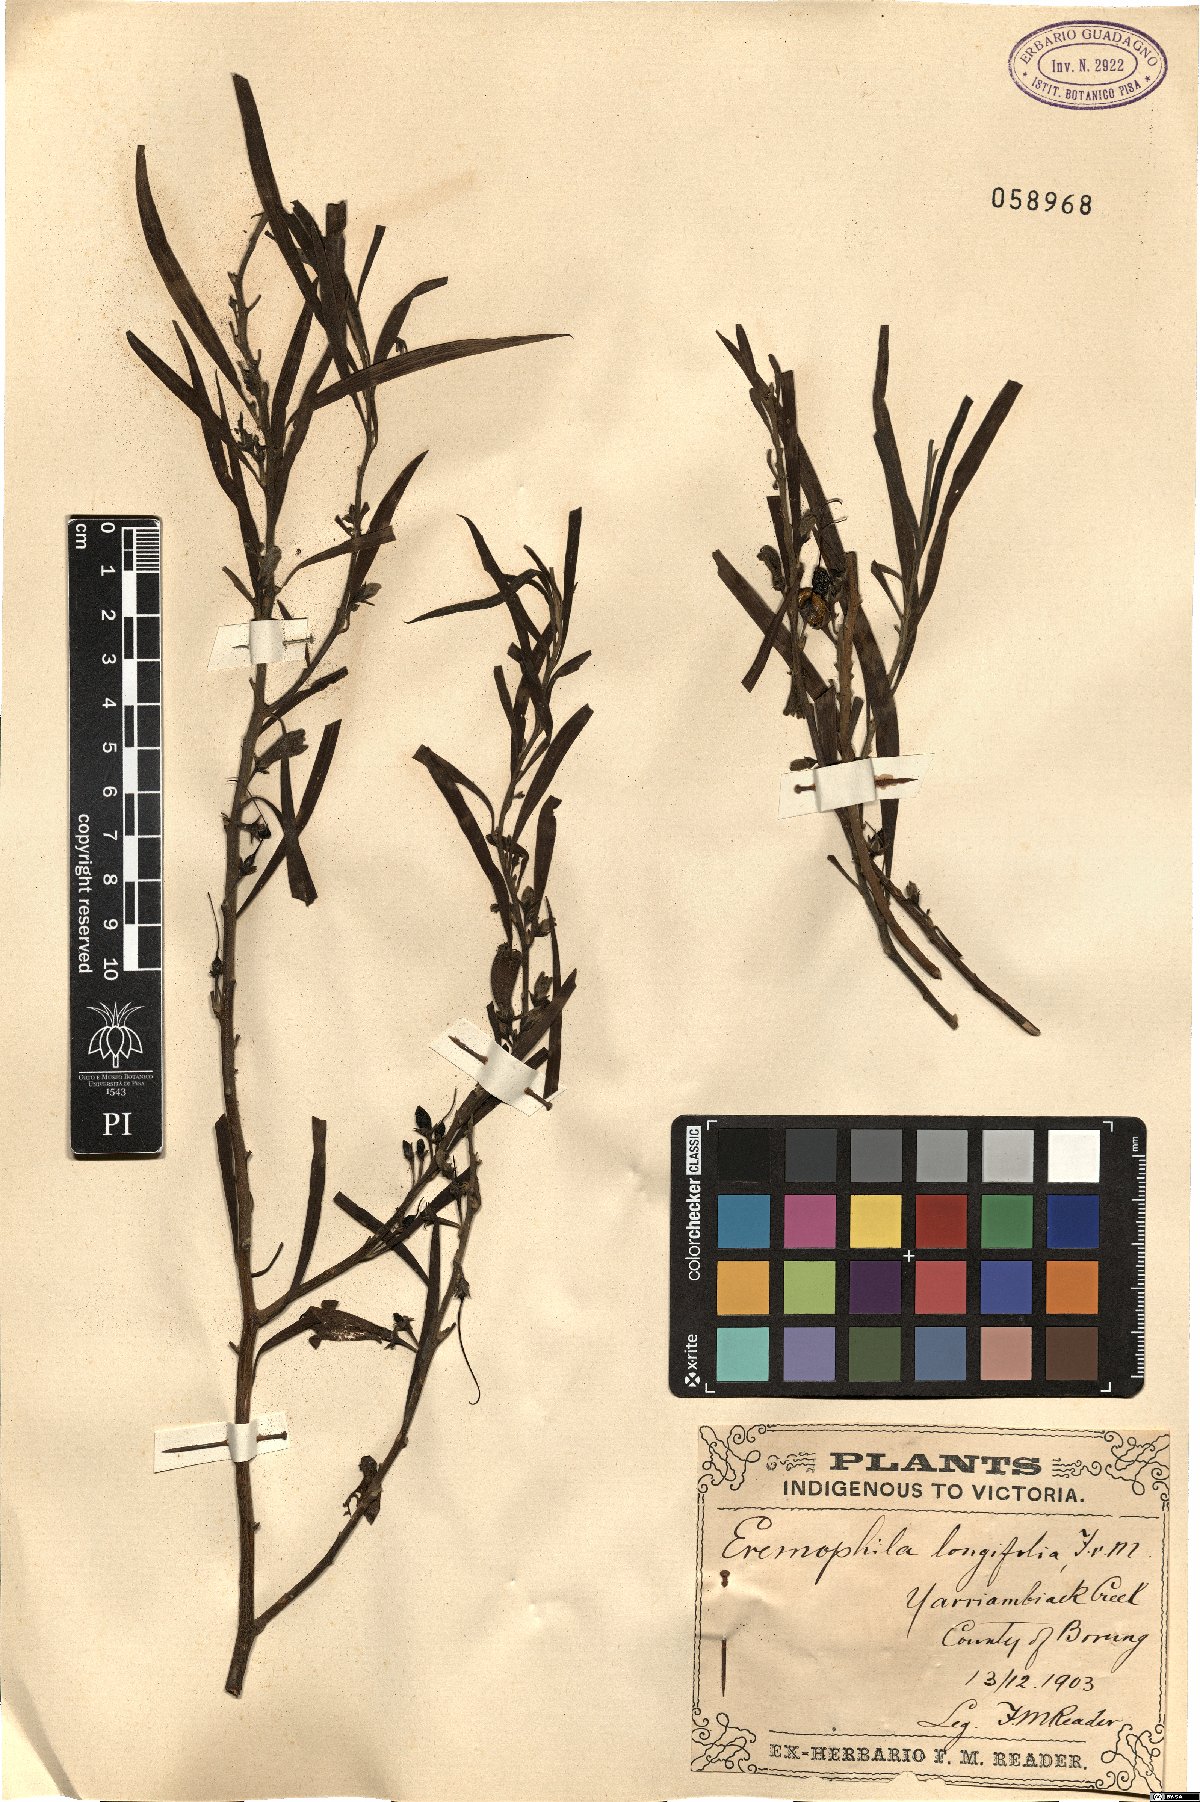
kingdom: Plantae
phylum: Tracheophyta
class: Magnoliopsida
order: Lamiales
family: Scrophulariaceae
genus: Eremophila
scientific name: Eremophila longifolia
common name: Longleaf emubush
